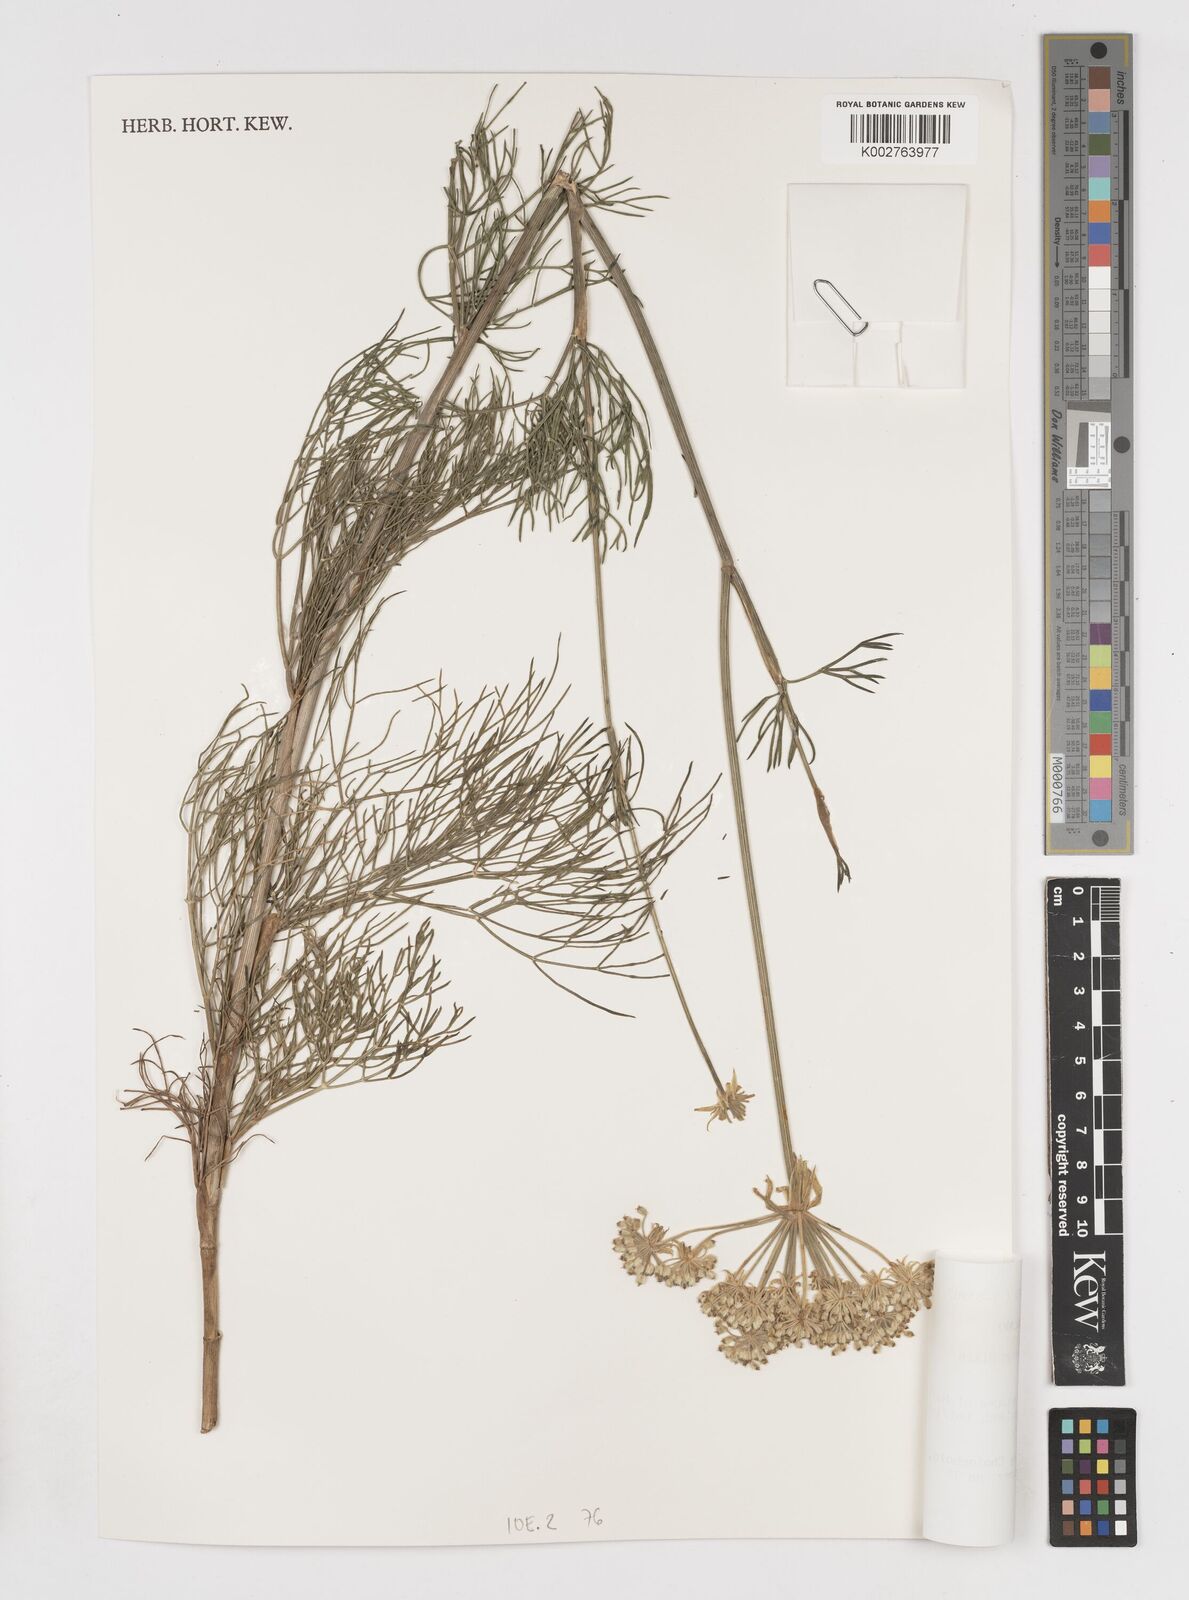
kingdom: Plantae
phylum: Tracheophyta
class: Magnoliopsida
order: Apiales
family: Apiaceae
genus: Diplolophium
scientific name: Diplolophium zambesianum
